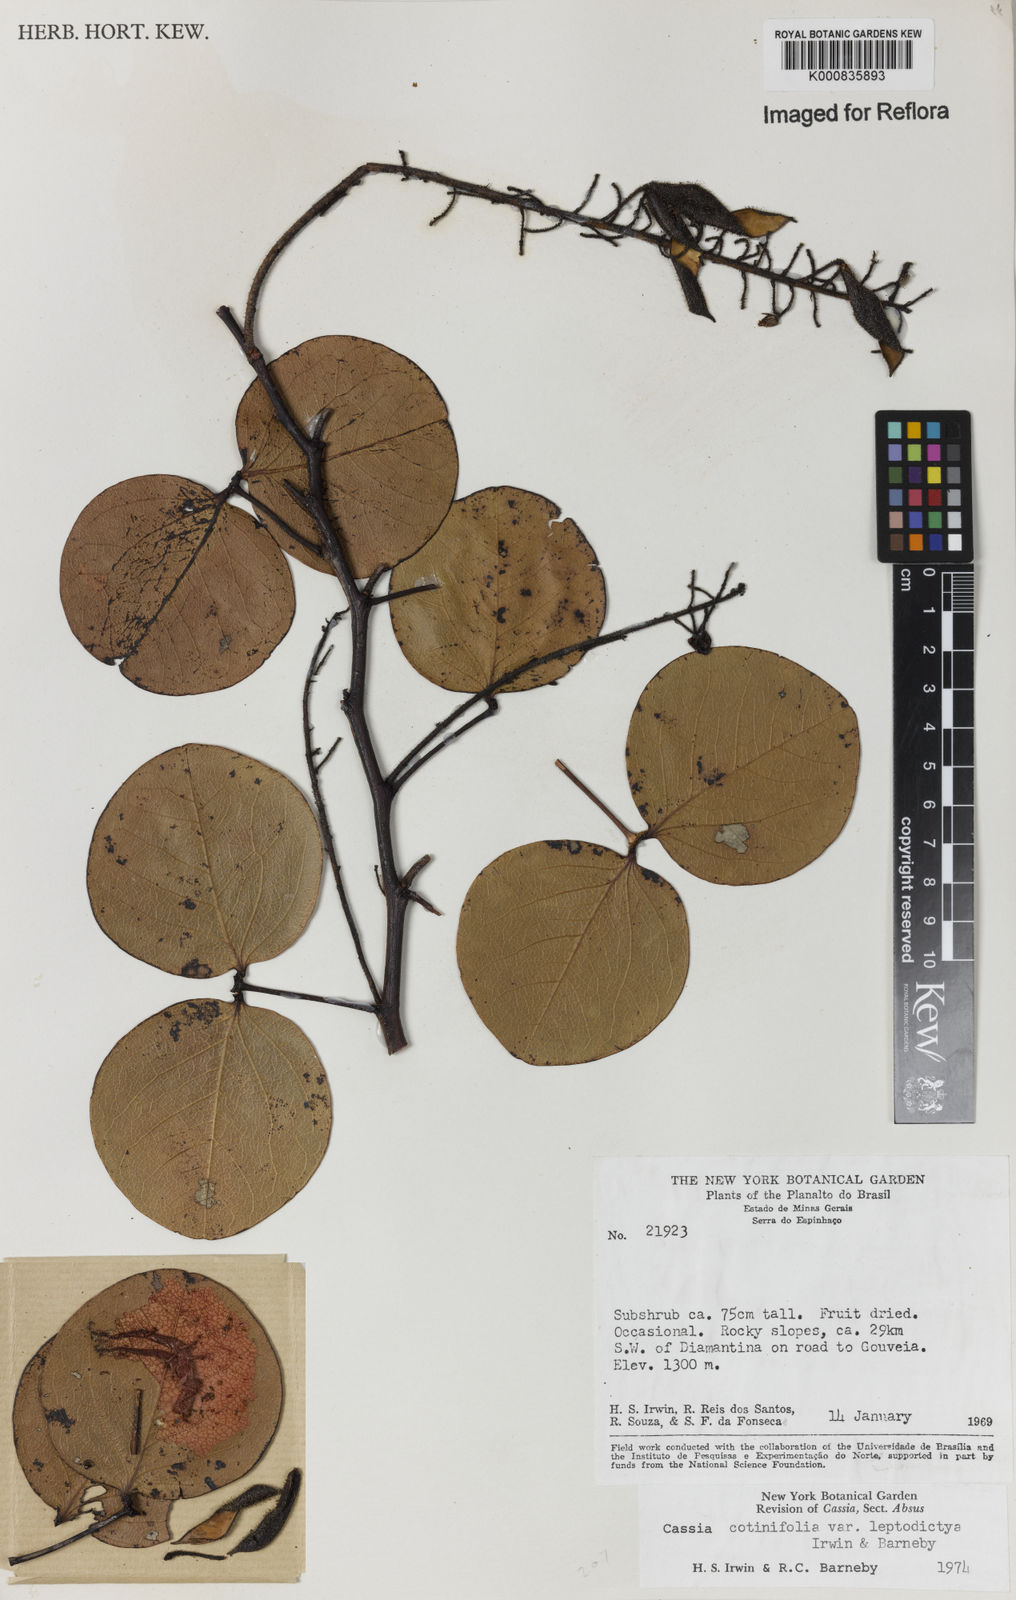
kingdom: Plantae
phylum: Tracheophyta
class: Magnoliopsida
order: Fabales
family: Fabaceae
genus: Chamaecrista
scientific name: Chamaecrista cotinifolia
